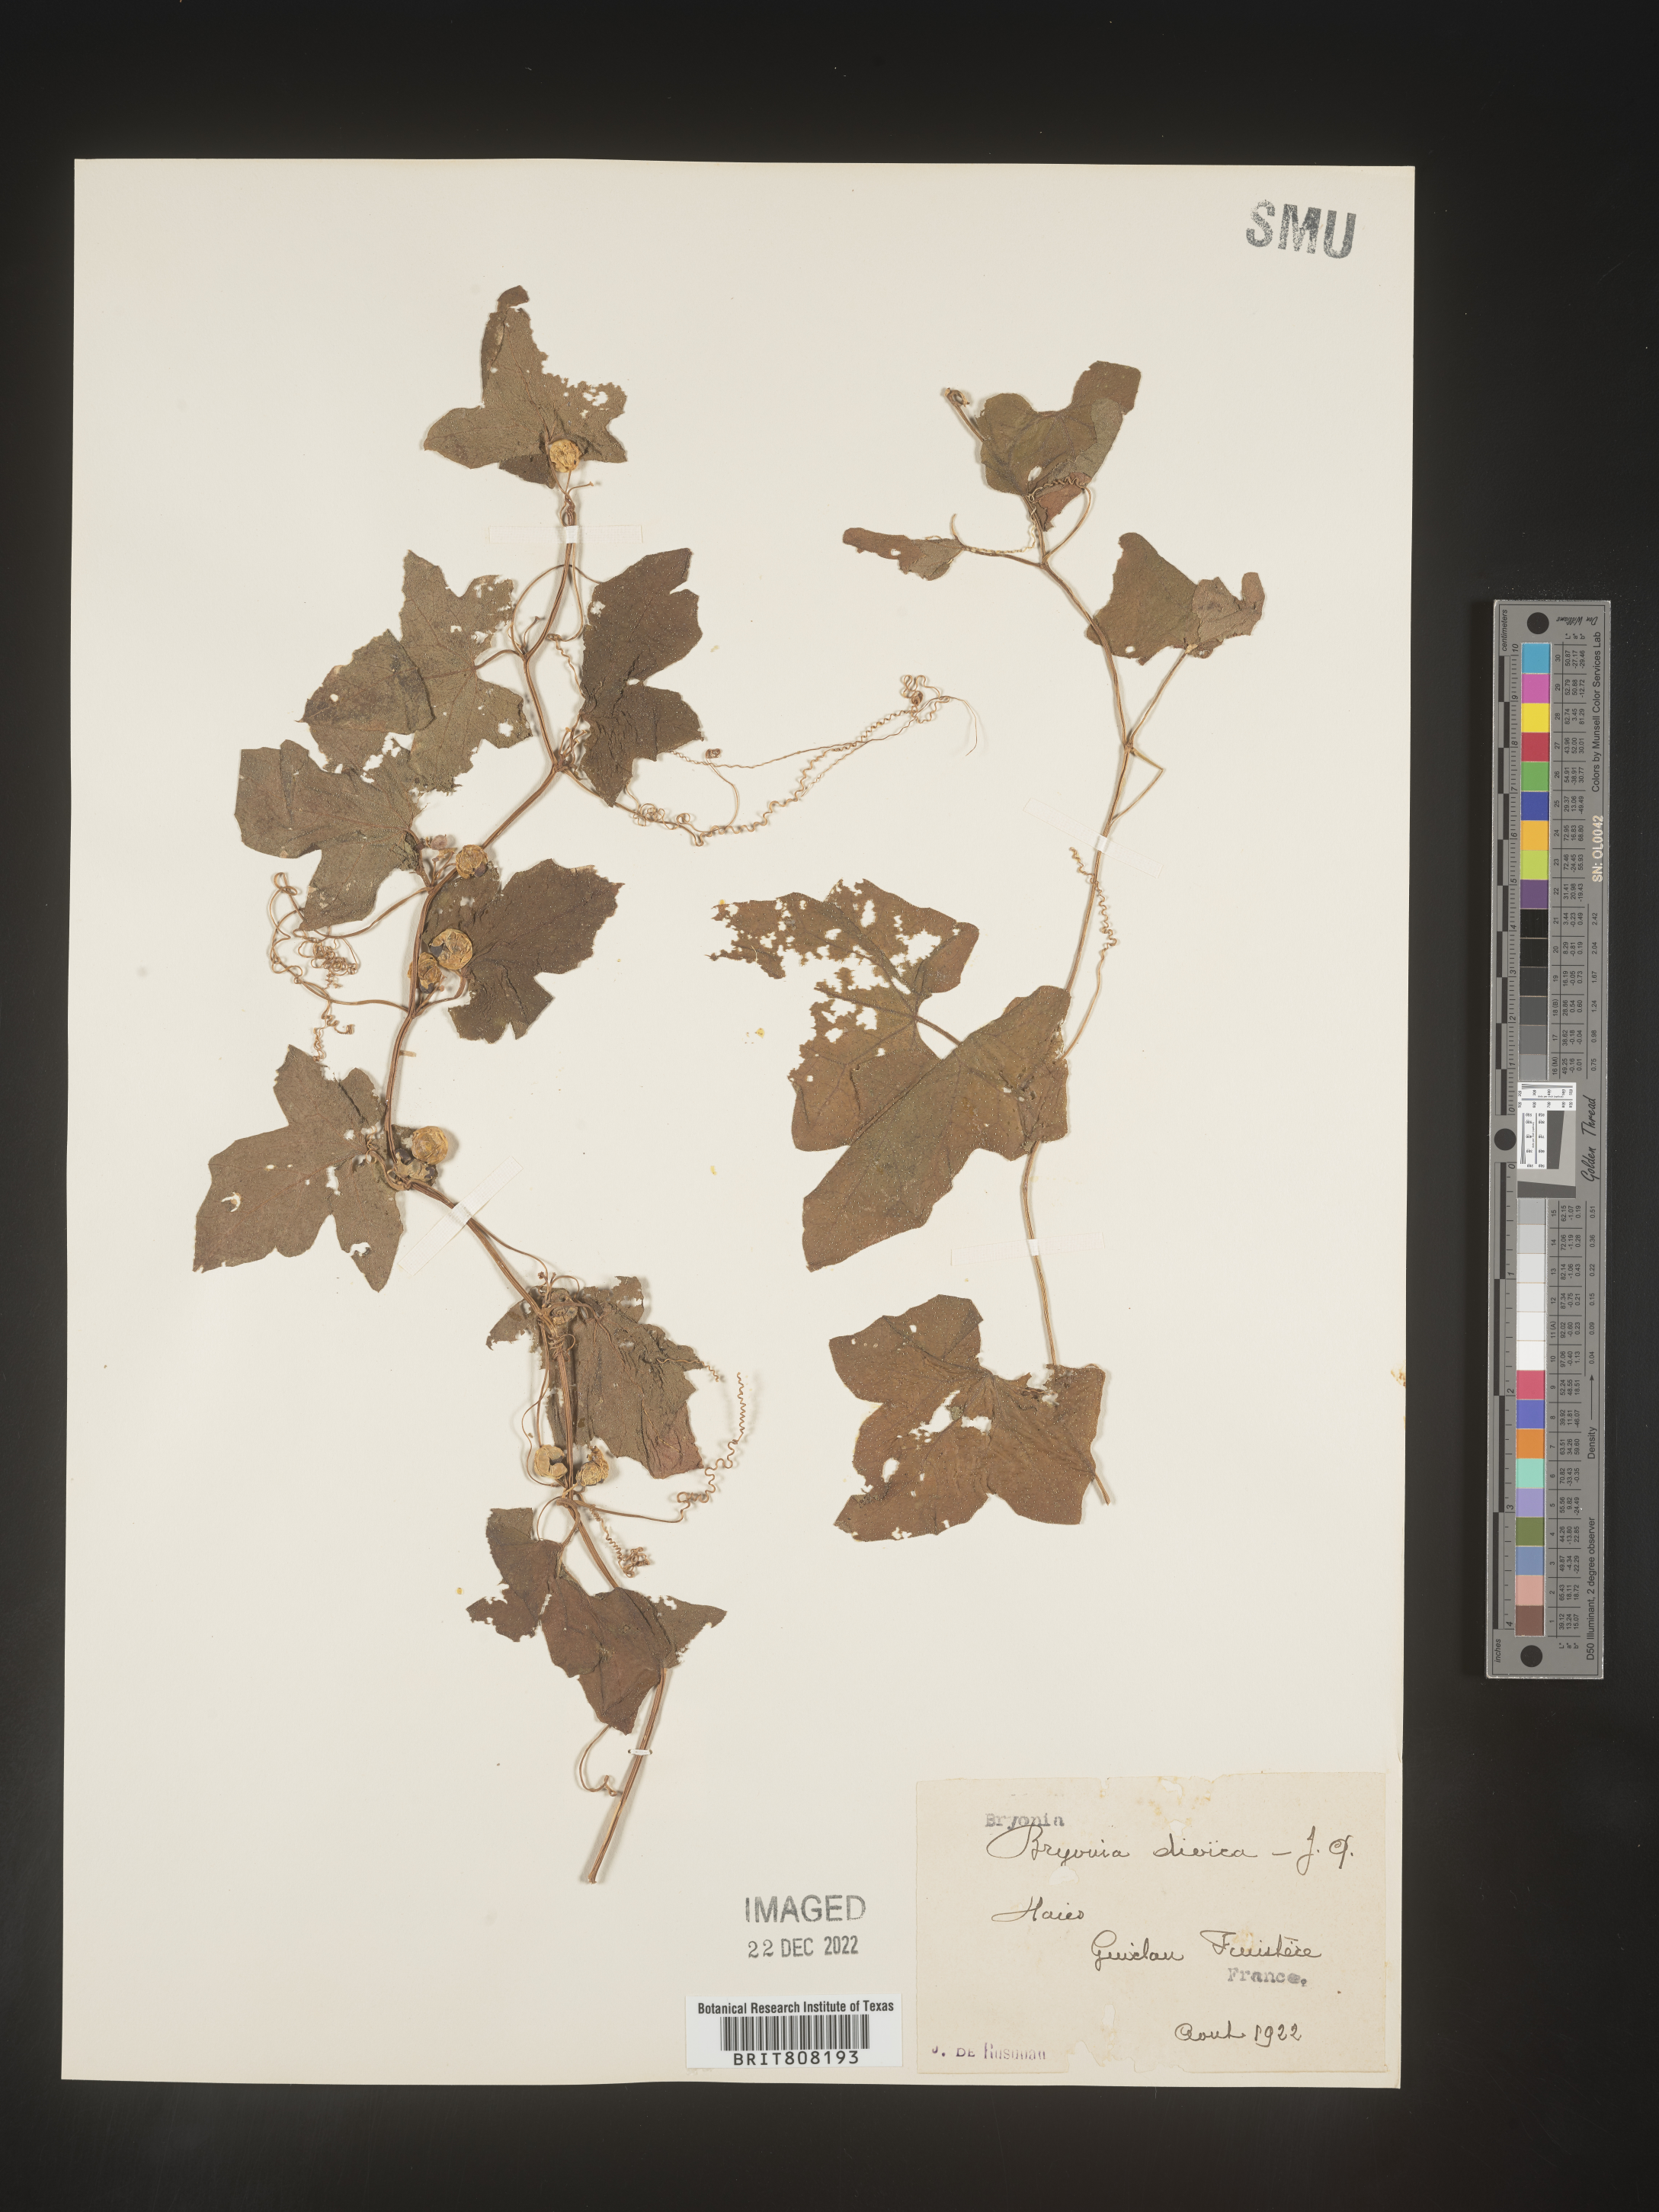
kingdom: Plantae
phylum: Tracheophyta
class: Magnoliopsida
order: Cucurbitales
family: Cucurbitaceae
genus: Bryonia
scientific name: Bryonia
